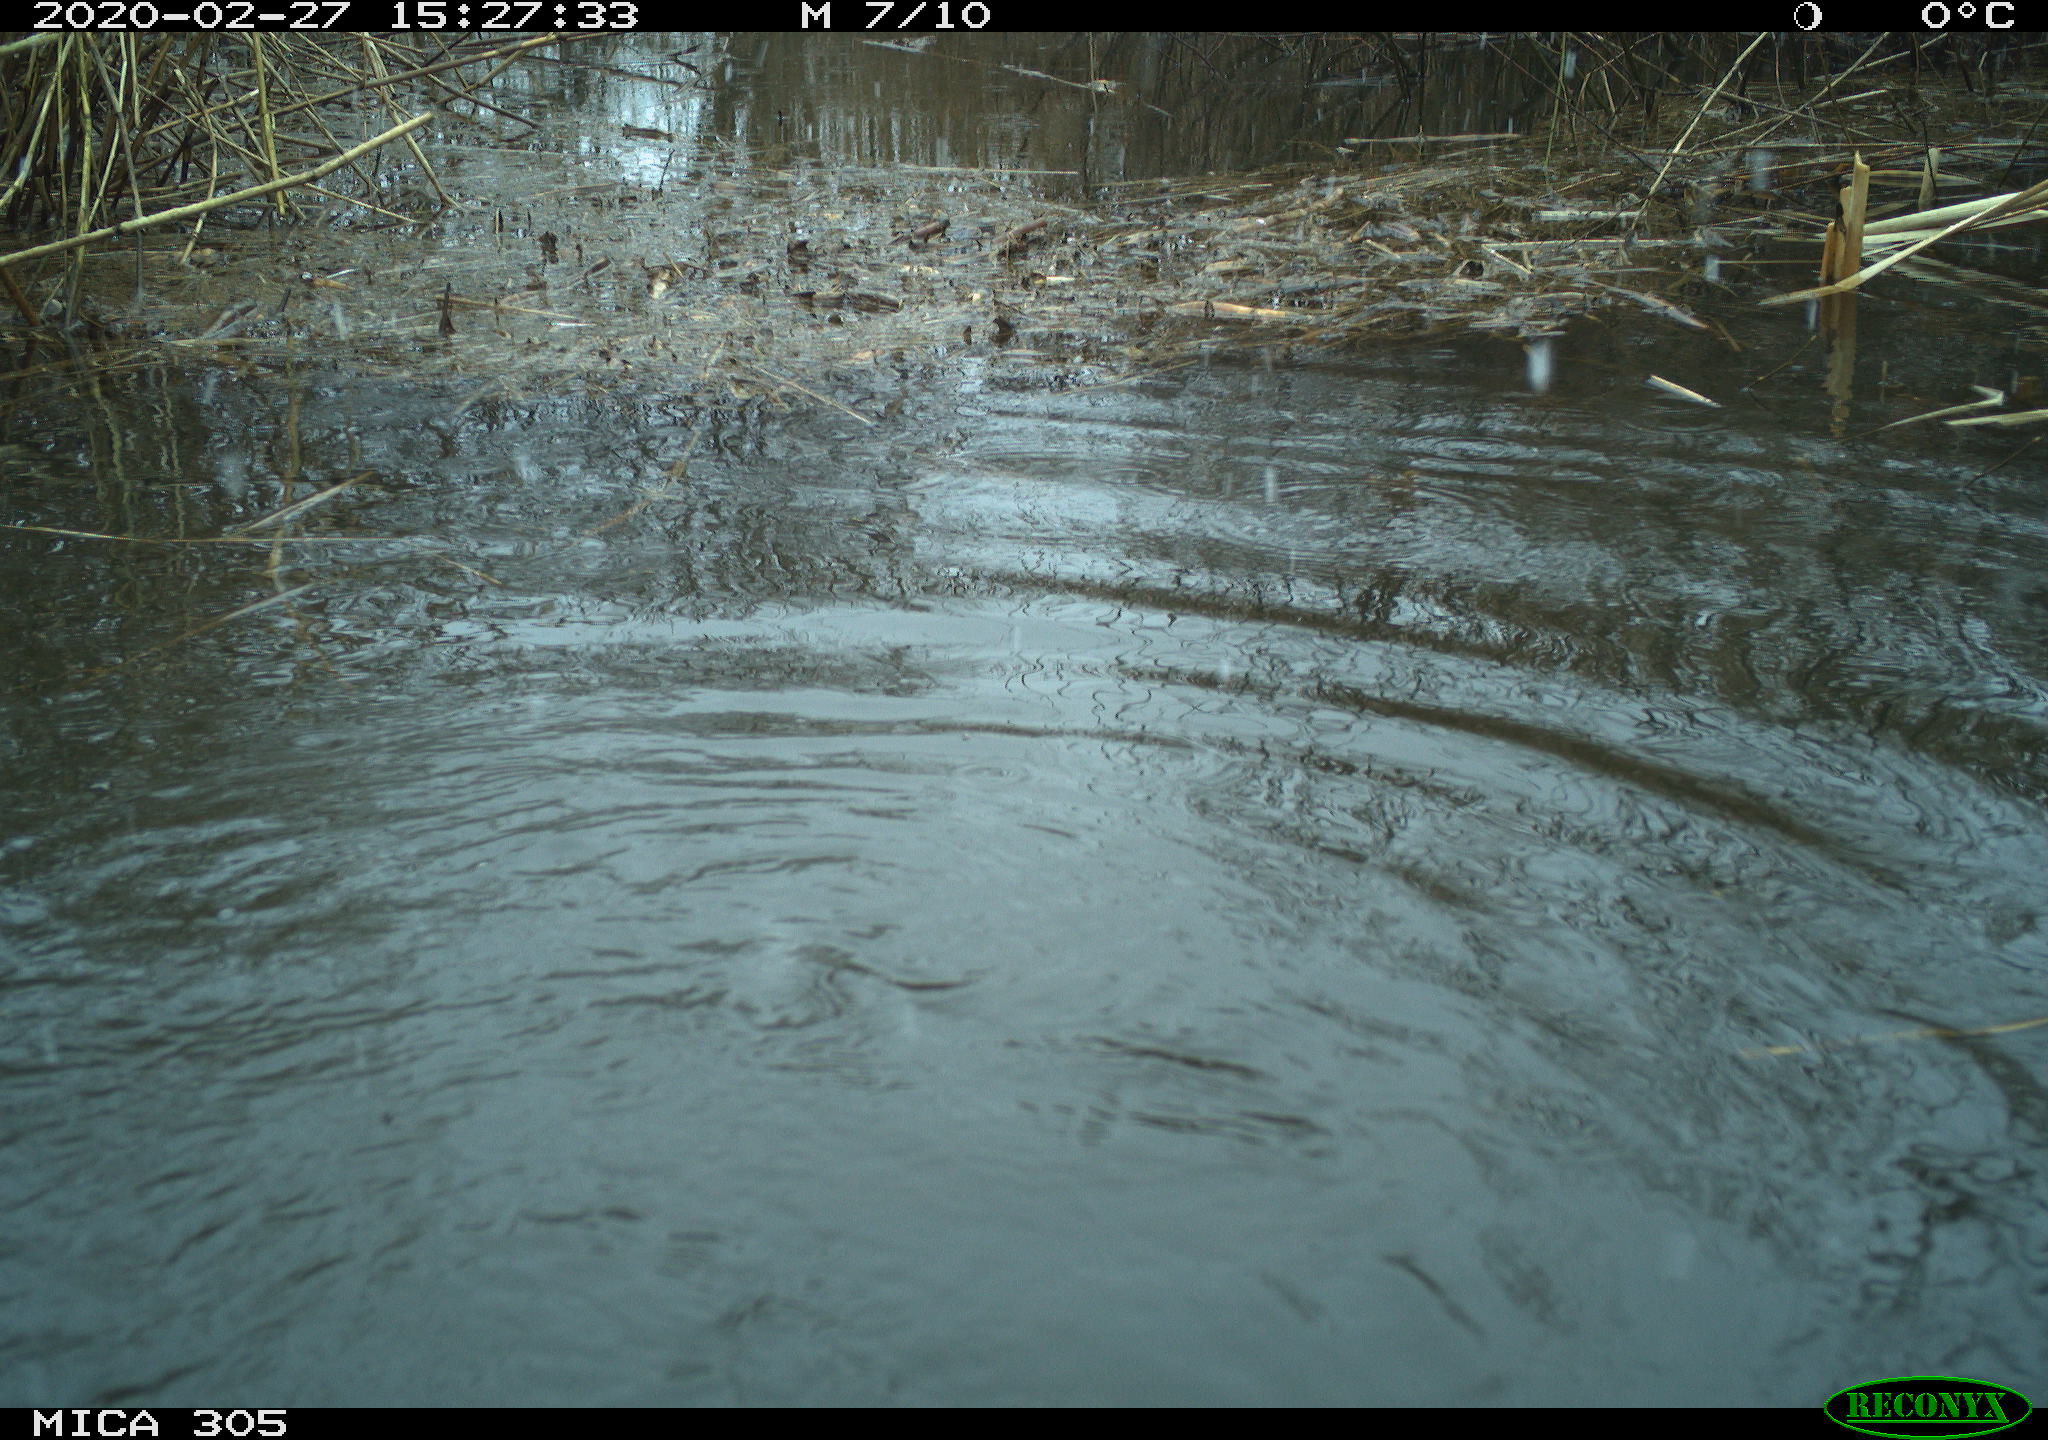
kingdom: Animalia
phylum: Chordata
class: Aves
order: Suliformes
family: Phalacrocoracidae
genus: Phalacrocorax
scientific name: Phalacrocorax carbo
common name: Great cormorant
